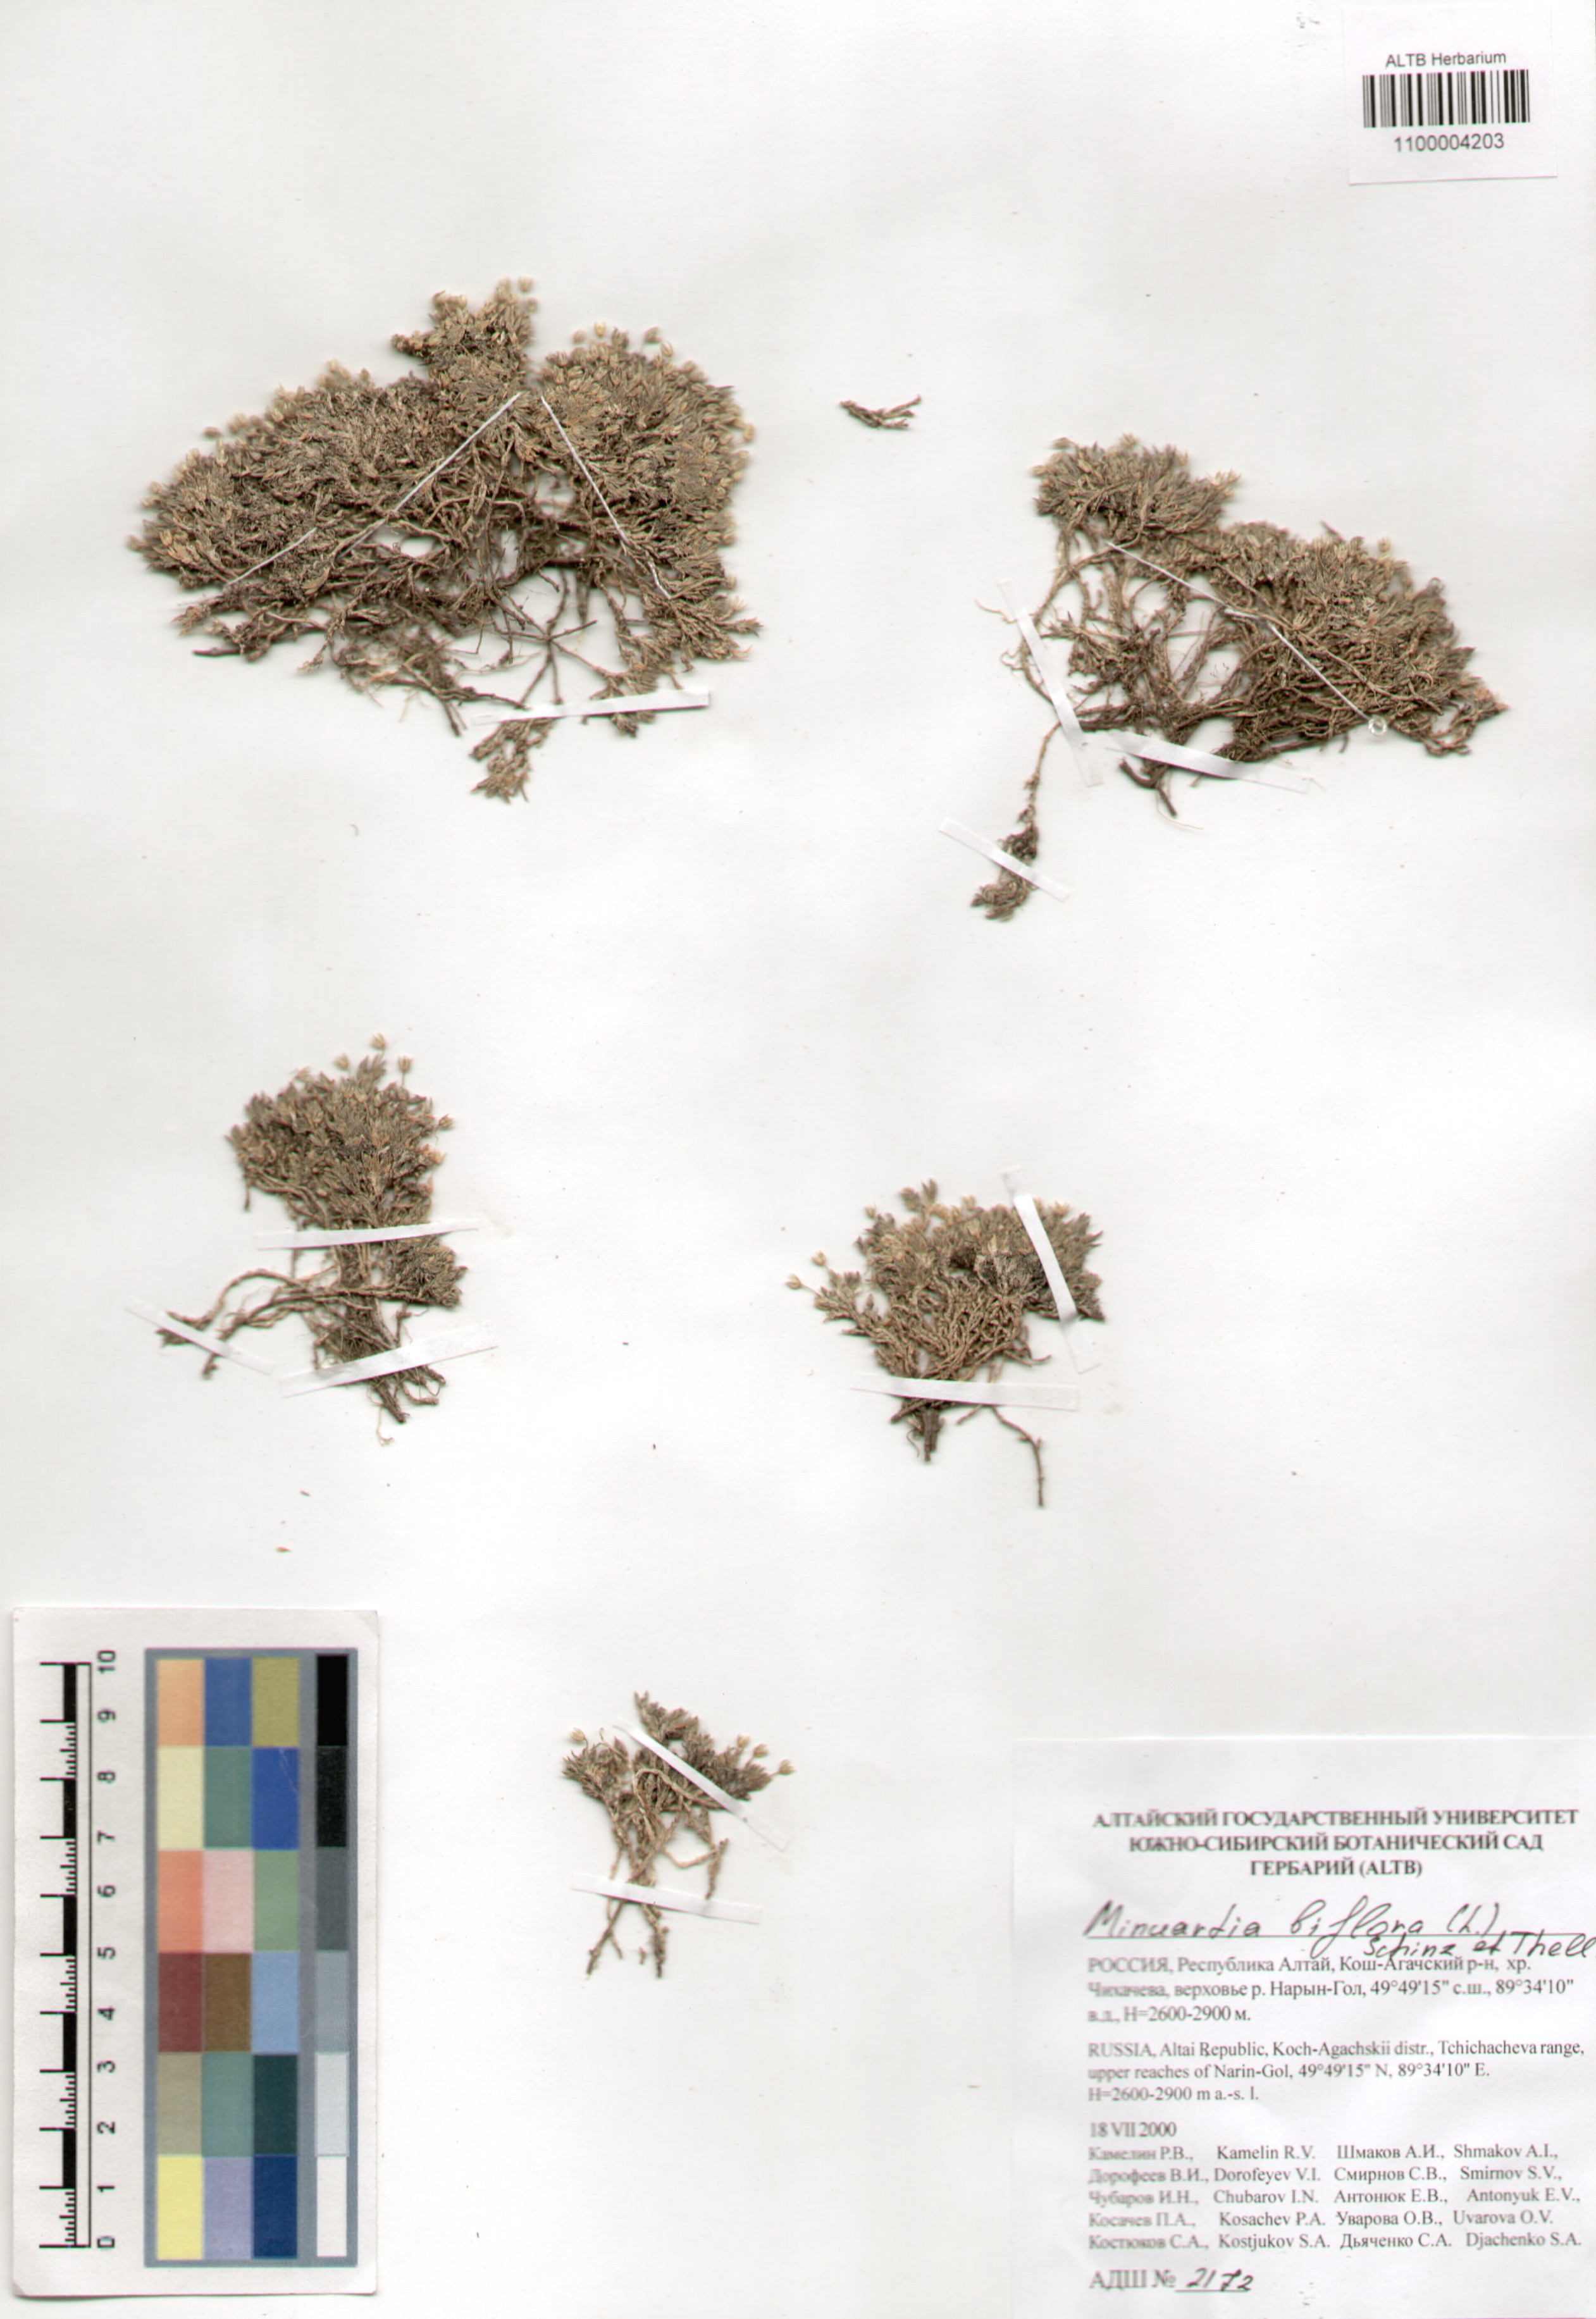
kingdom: Plantae
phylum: Tracheophyta
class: Magnoliopsida
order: Caryophyllales
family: Caryophyllaceae
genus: Cherleria
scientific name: Cherleria biflora
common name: Mountain sandwort
